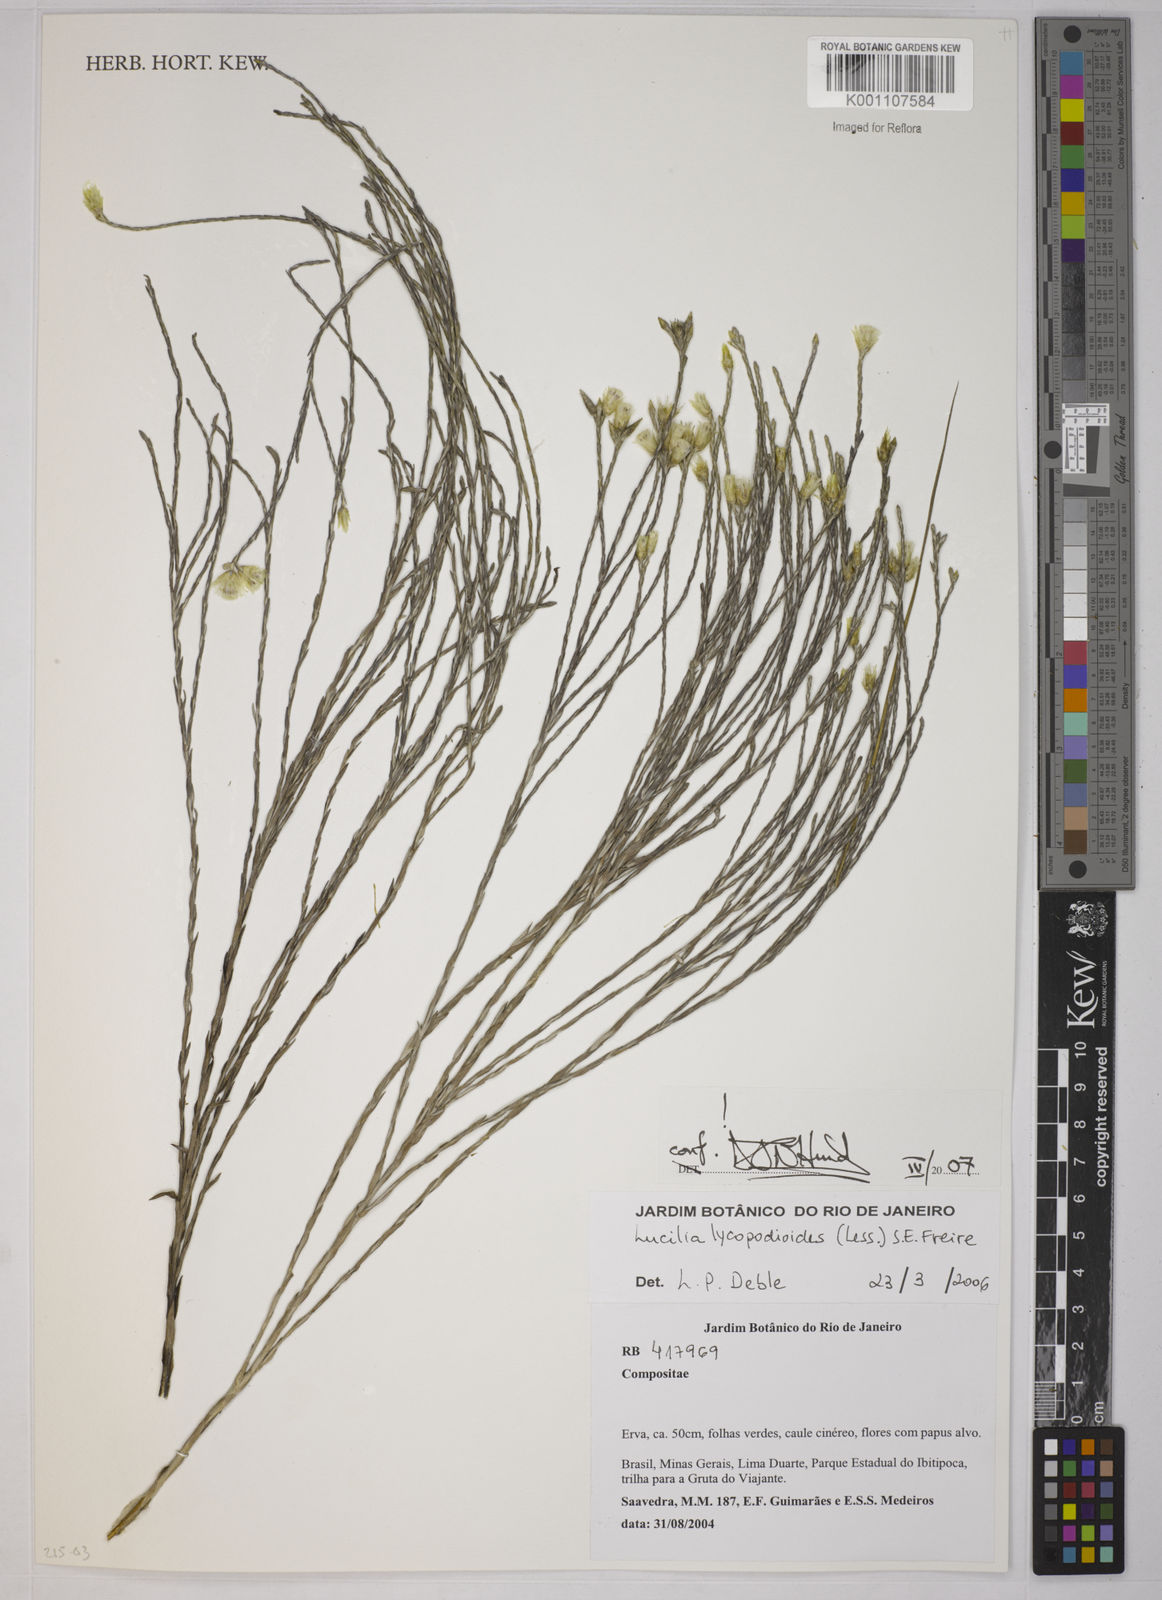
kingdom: Plantae
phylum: Tracheophyta
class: Magnoliopsida
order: Asterales
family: Asteraceae
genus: Lucilia
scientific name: Lucilia lycopodioides
